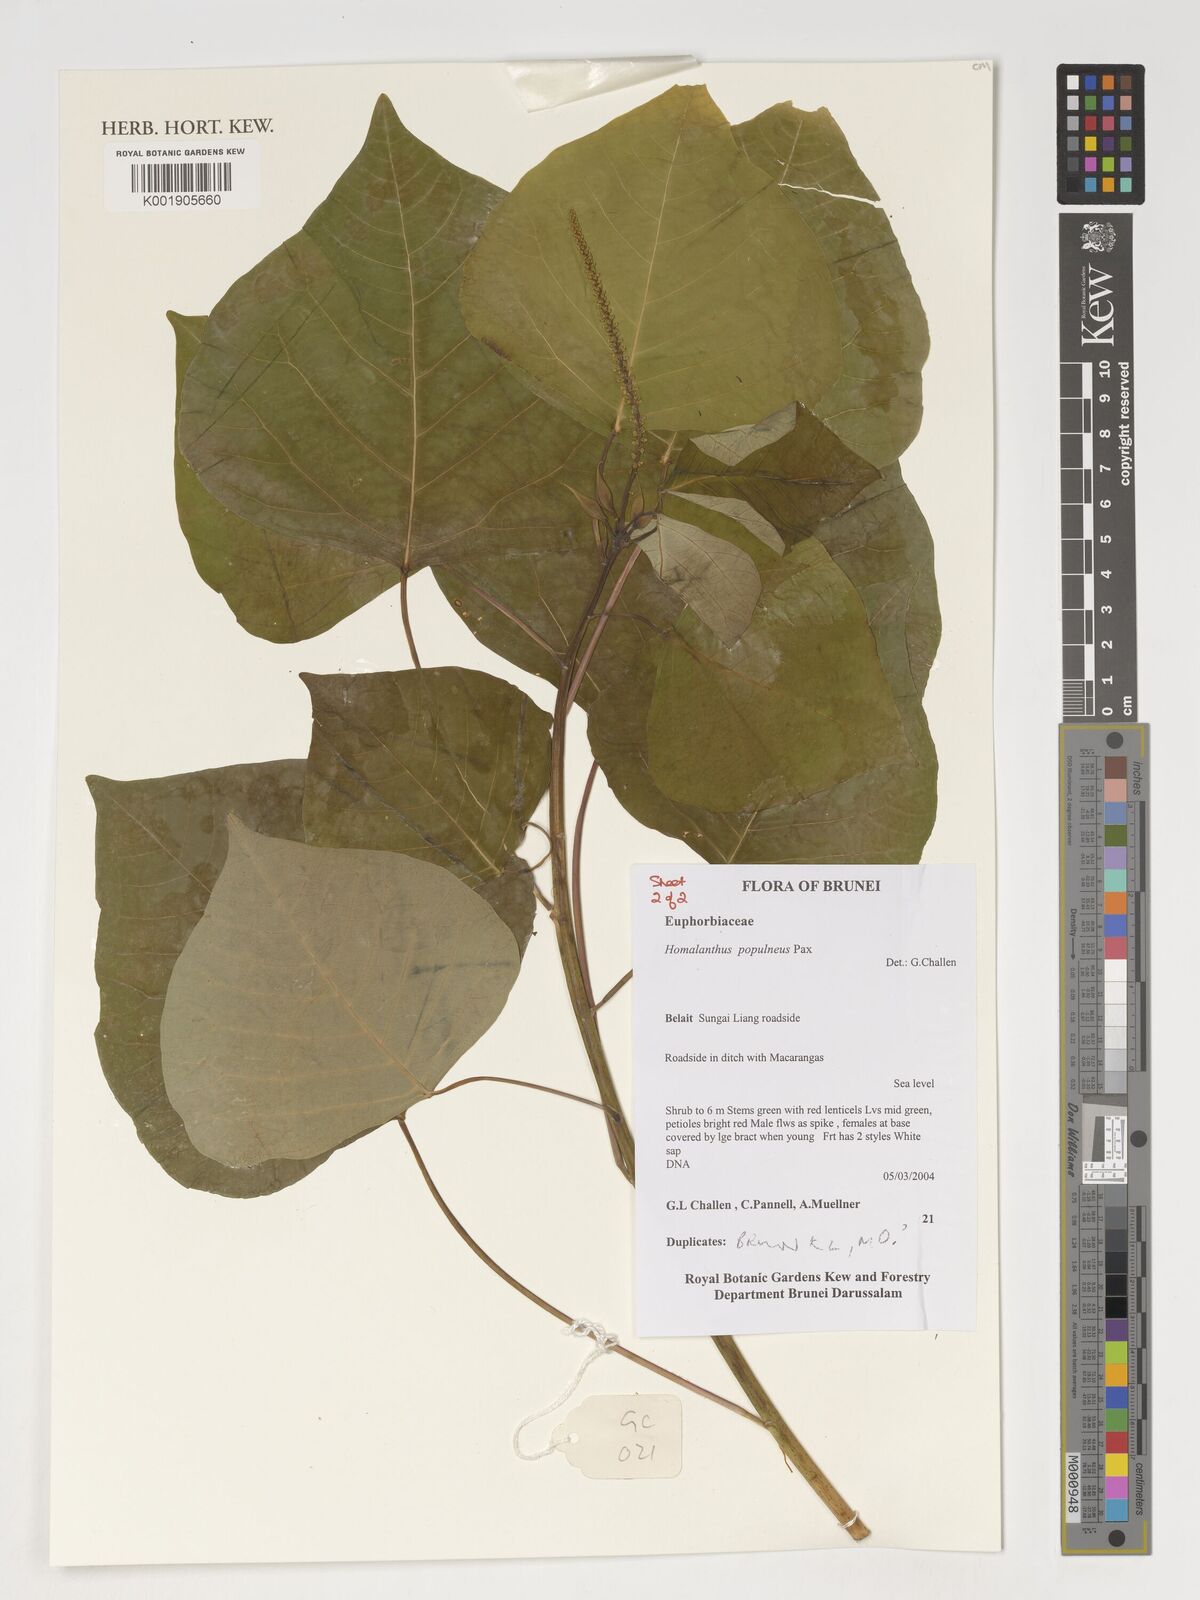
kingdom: Plantae
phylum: Tracheophyta
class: Magnoliopsida
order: Malpighiales
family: Euphorbiaceae
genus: Homalanthus
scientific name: Homalanthus populneus
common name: Spurge
